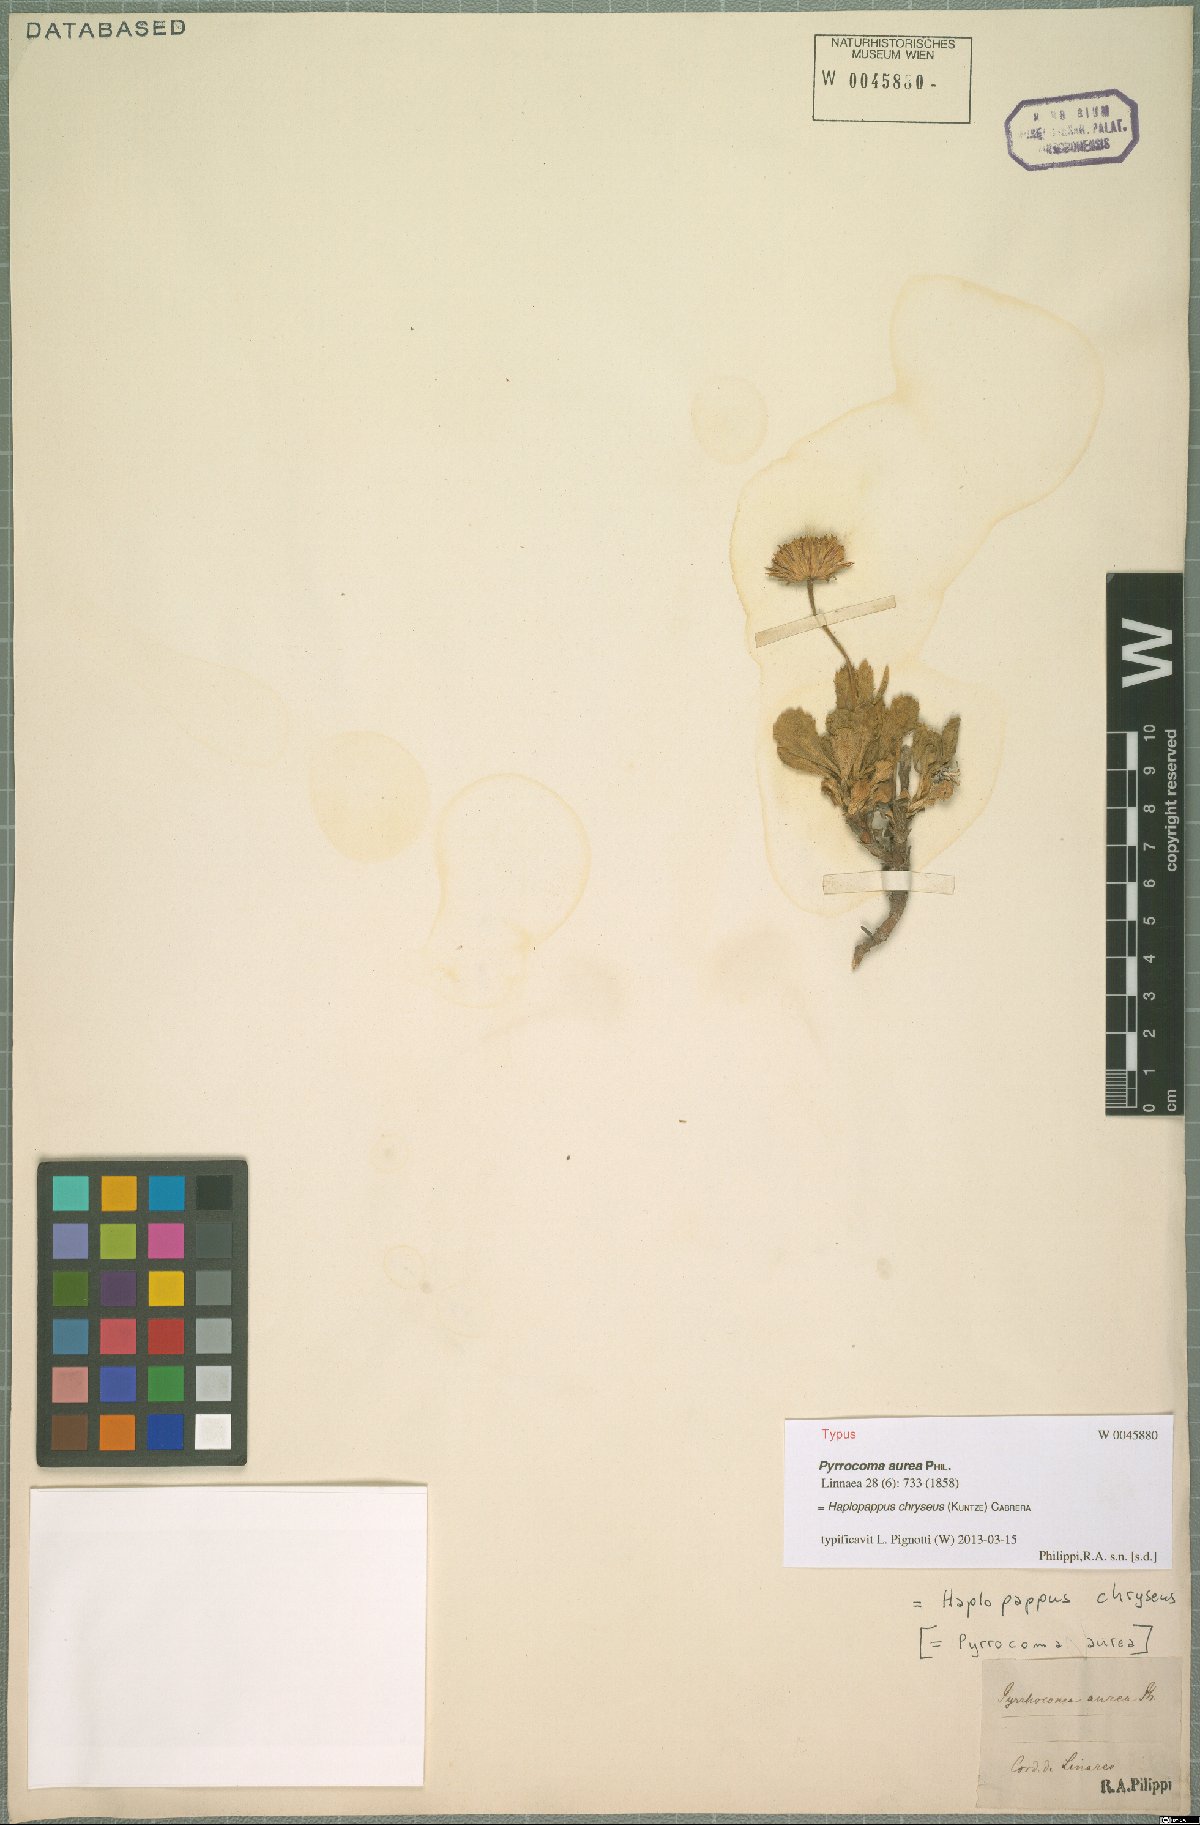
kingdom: Plantae
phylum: Tracheophyta
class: Magnoliopsida
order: Asterales
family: Asteraceae
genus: Notopappus
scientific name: Notopappus chryseus
